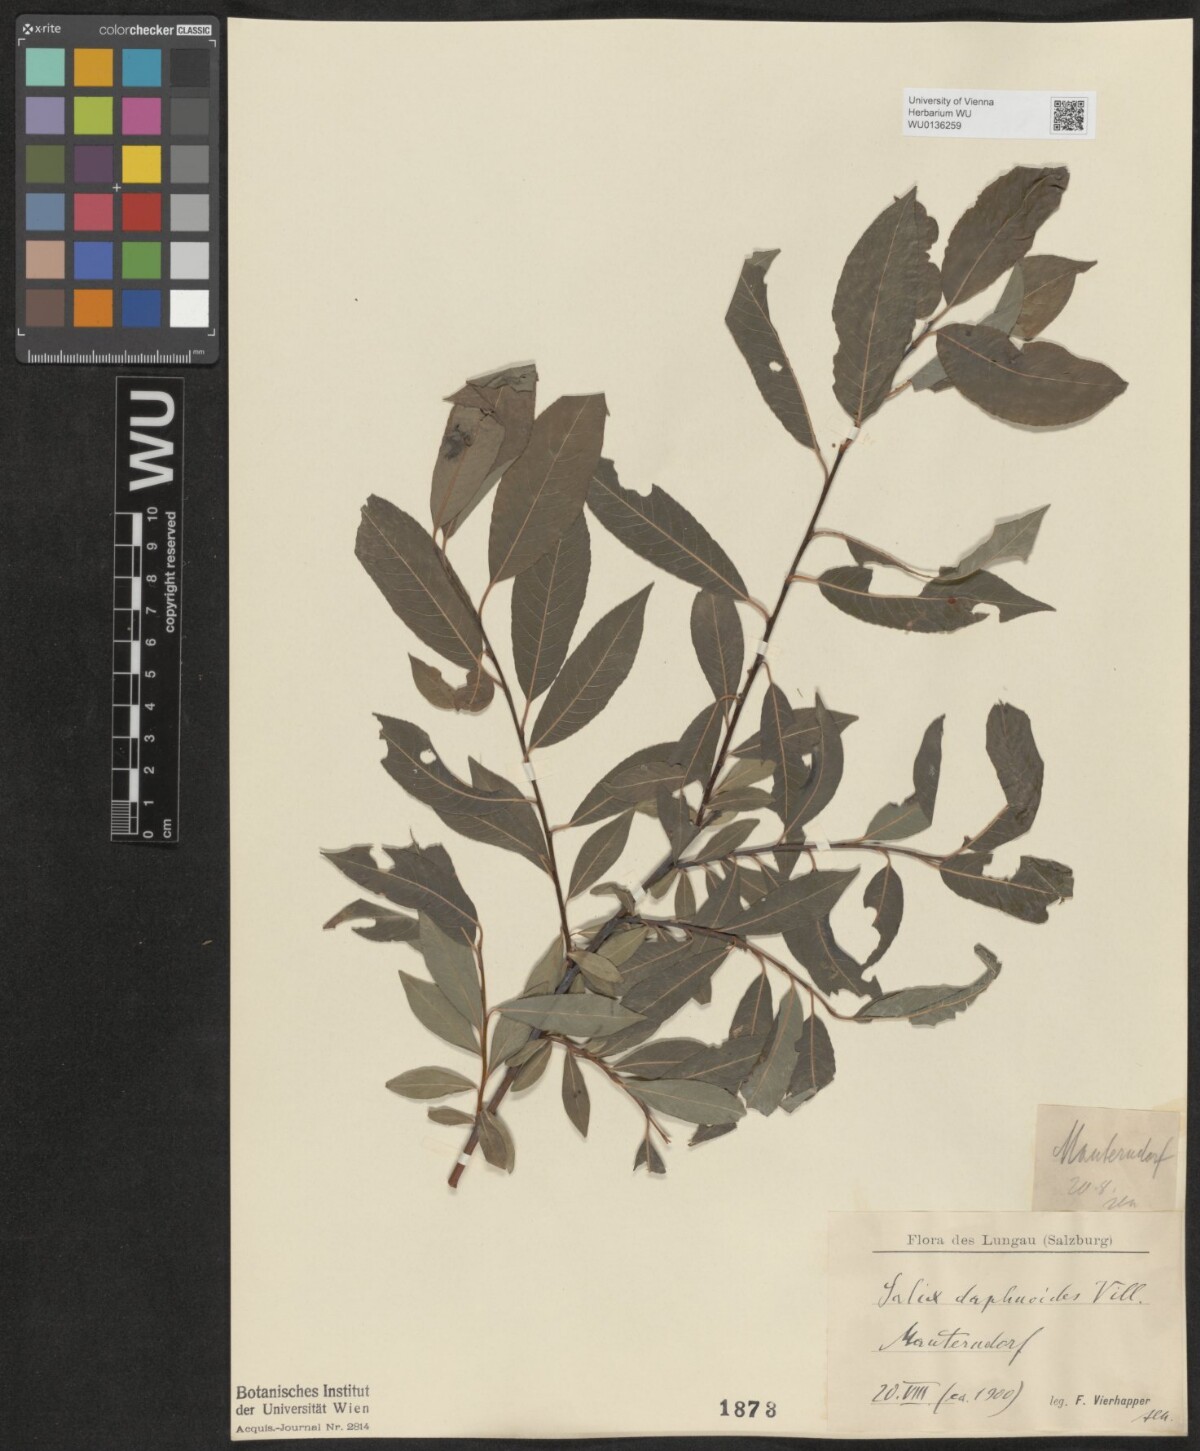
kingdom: Plantae
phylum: Tracheophyta
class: Magnoliopsida
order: Malpighiales
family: Salicaceae
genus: Salix
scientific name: Salix daphnoides
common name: European violet-willow
